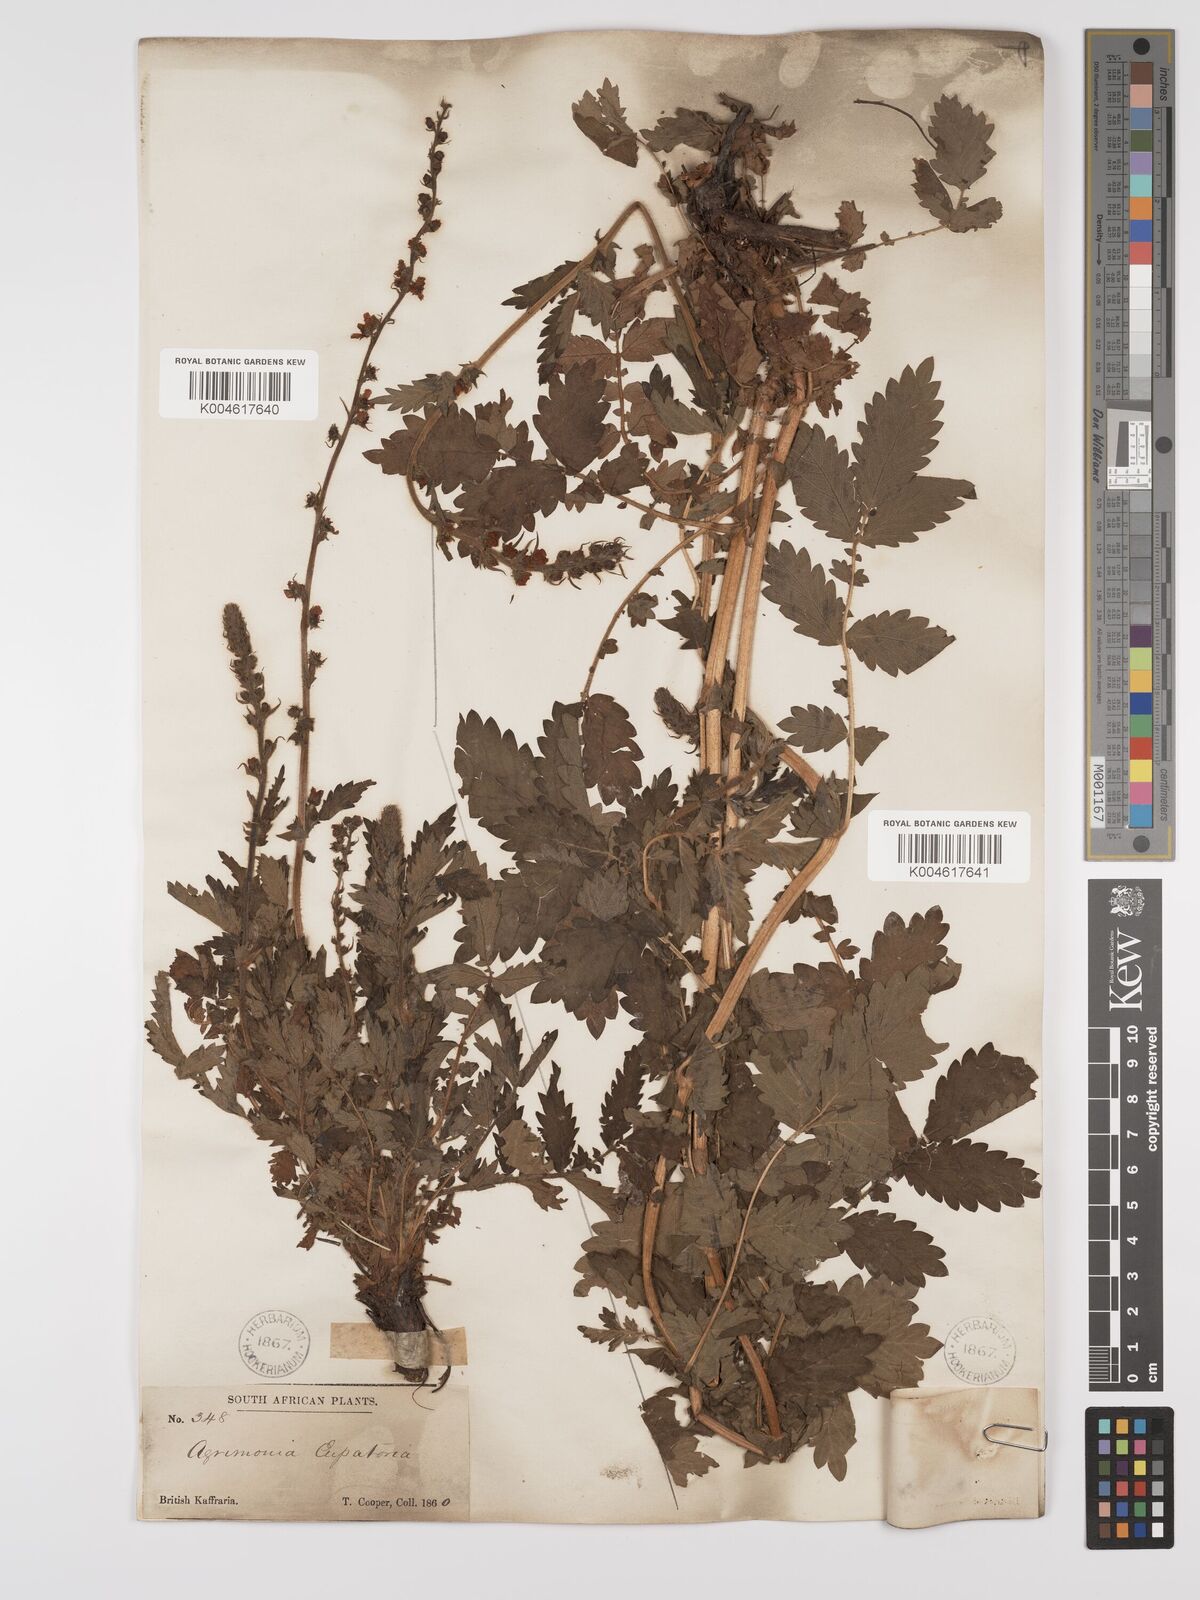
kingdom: Plantae
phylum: Tracheophyta
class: Magnoliopsida
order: Rosales
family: Rosaceae
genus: Agrimonia
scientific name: Agrimonia eupatoria
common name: Agrimony
